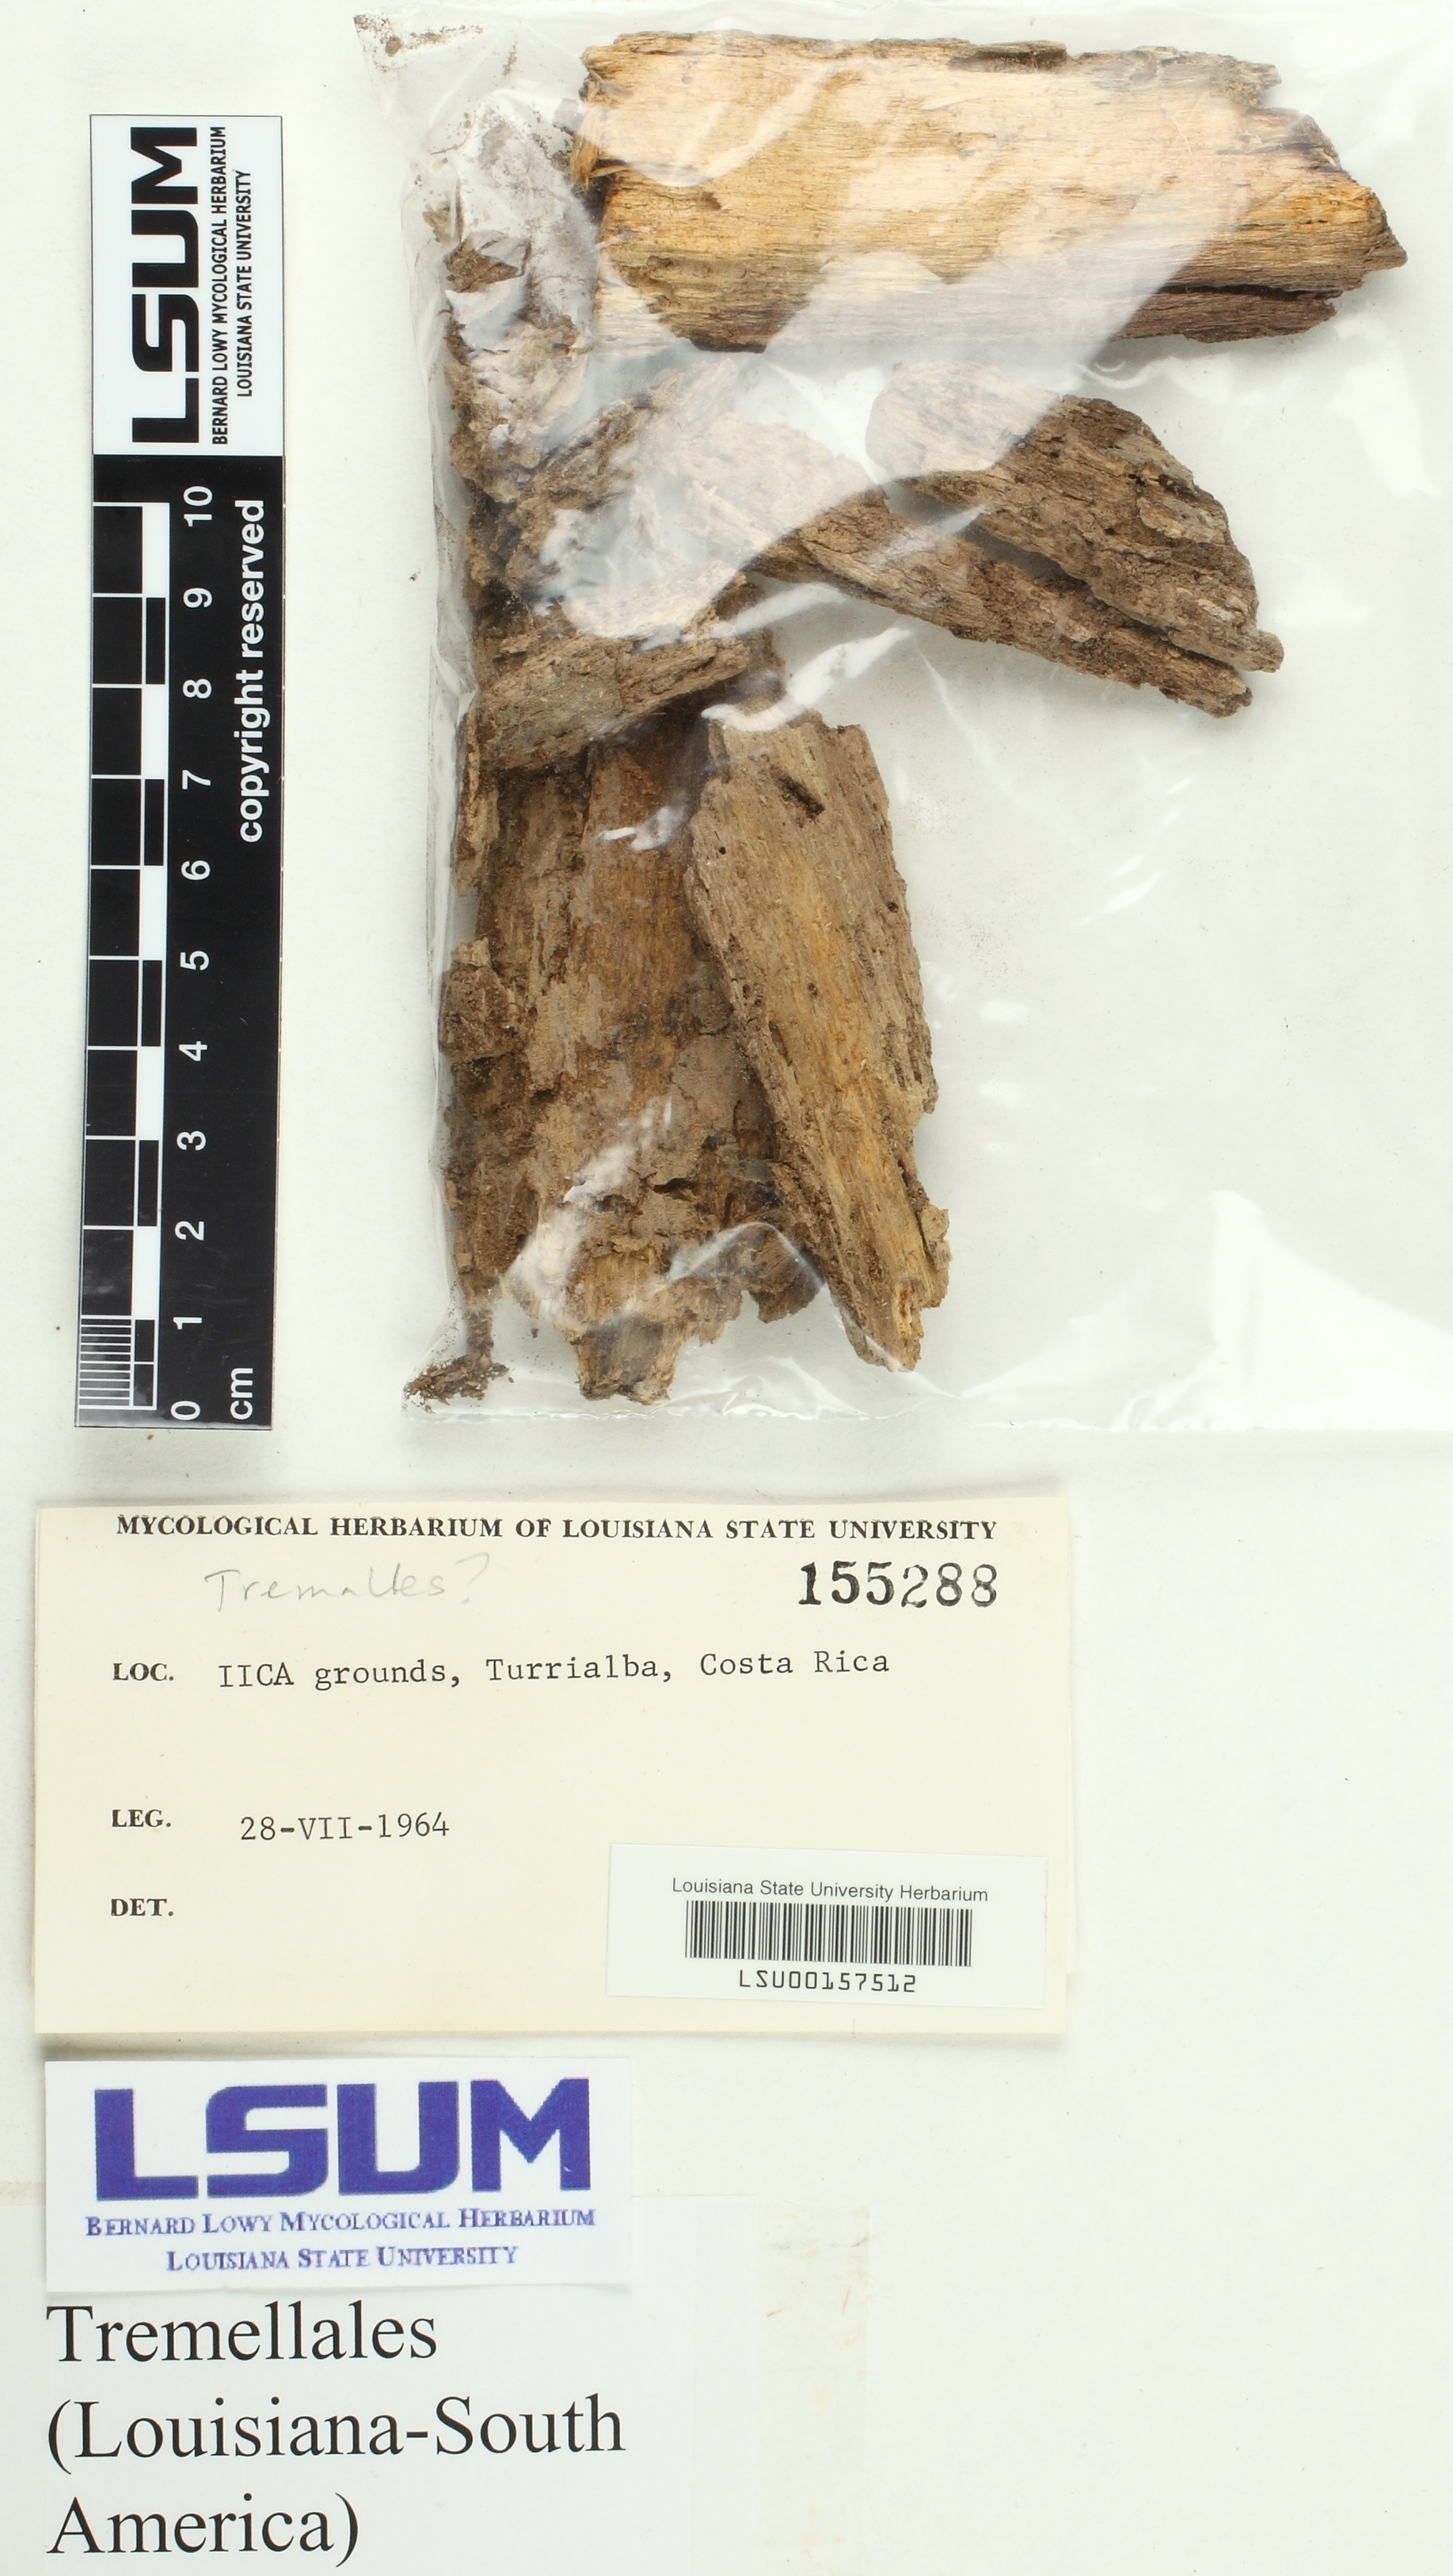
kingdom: Fungi
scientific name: Fungi
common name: Fungi
